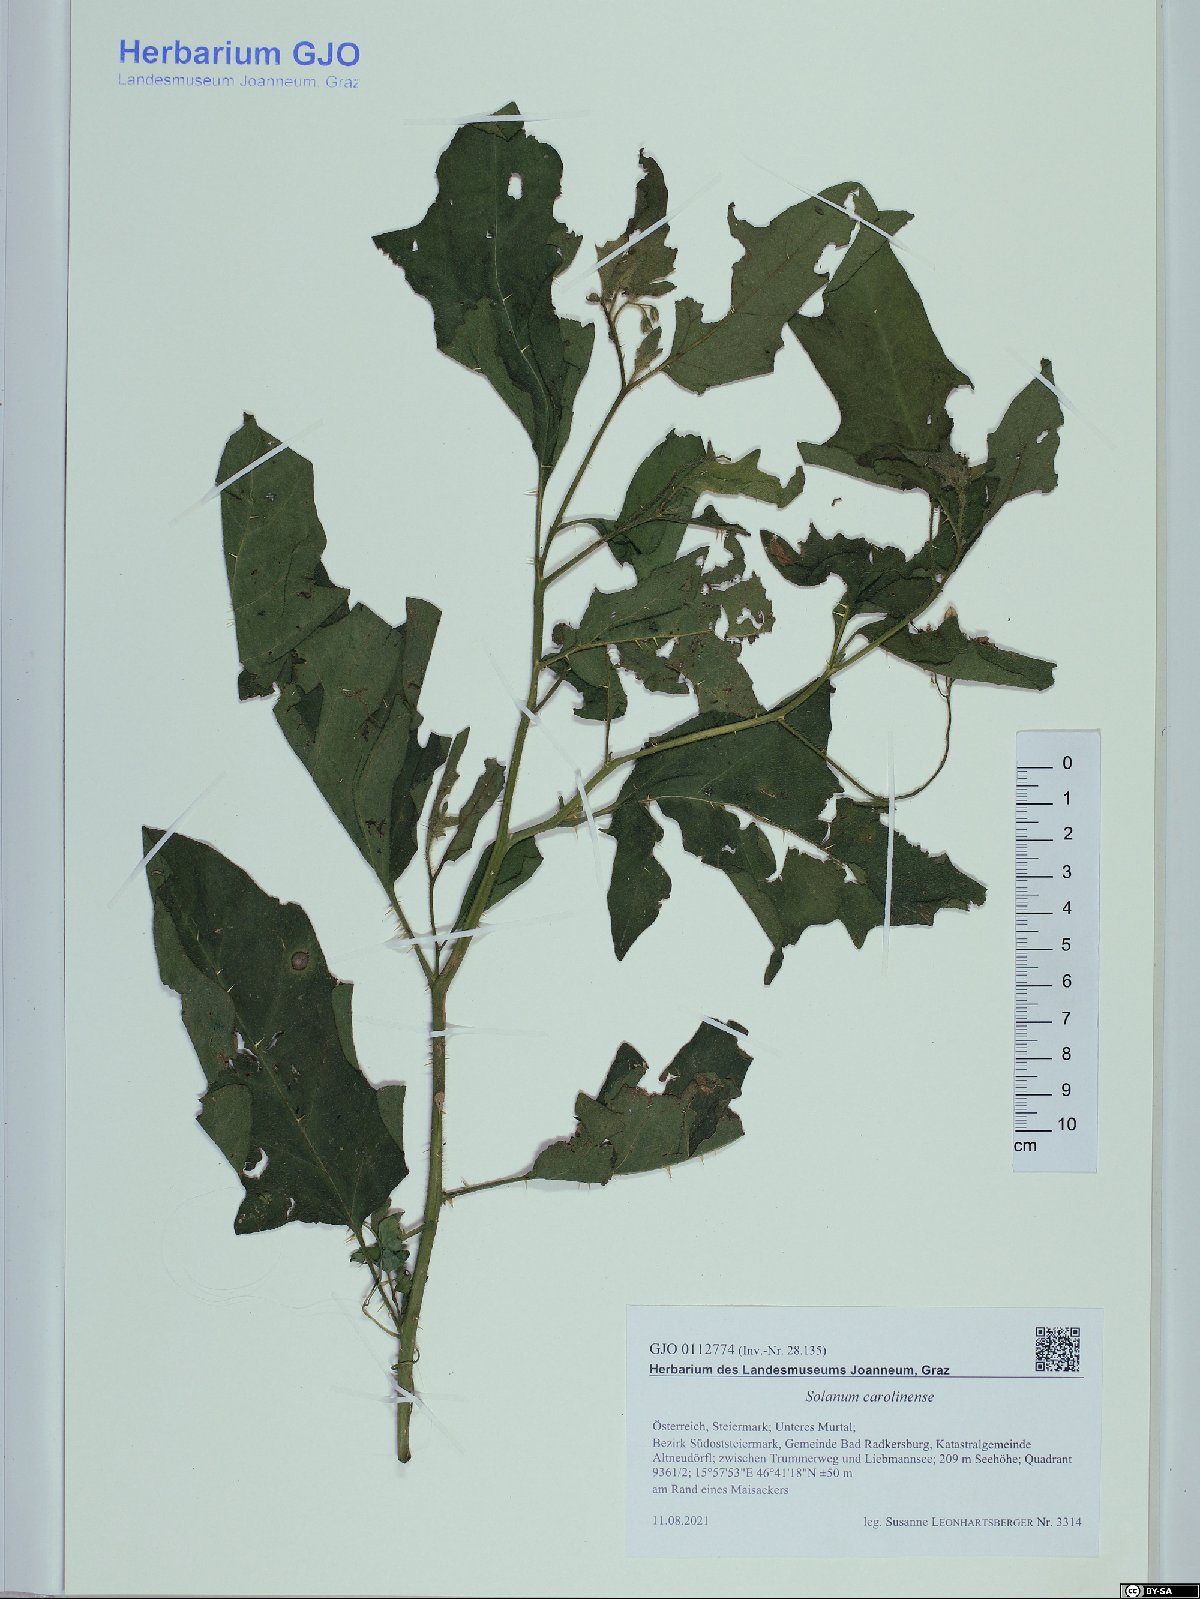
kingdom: Plantae
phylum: Tracheophyta
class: Magnoliopsida
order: Solanales
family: Solanaceae
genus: Solanum
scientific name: Solanum carolinense
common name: Horse-nettle
